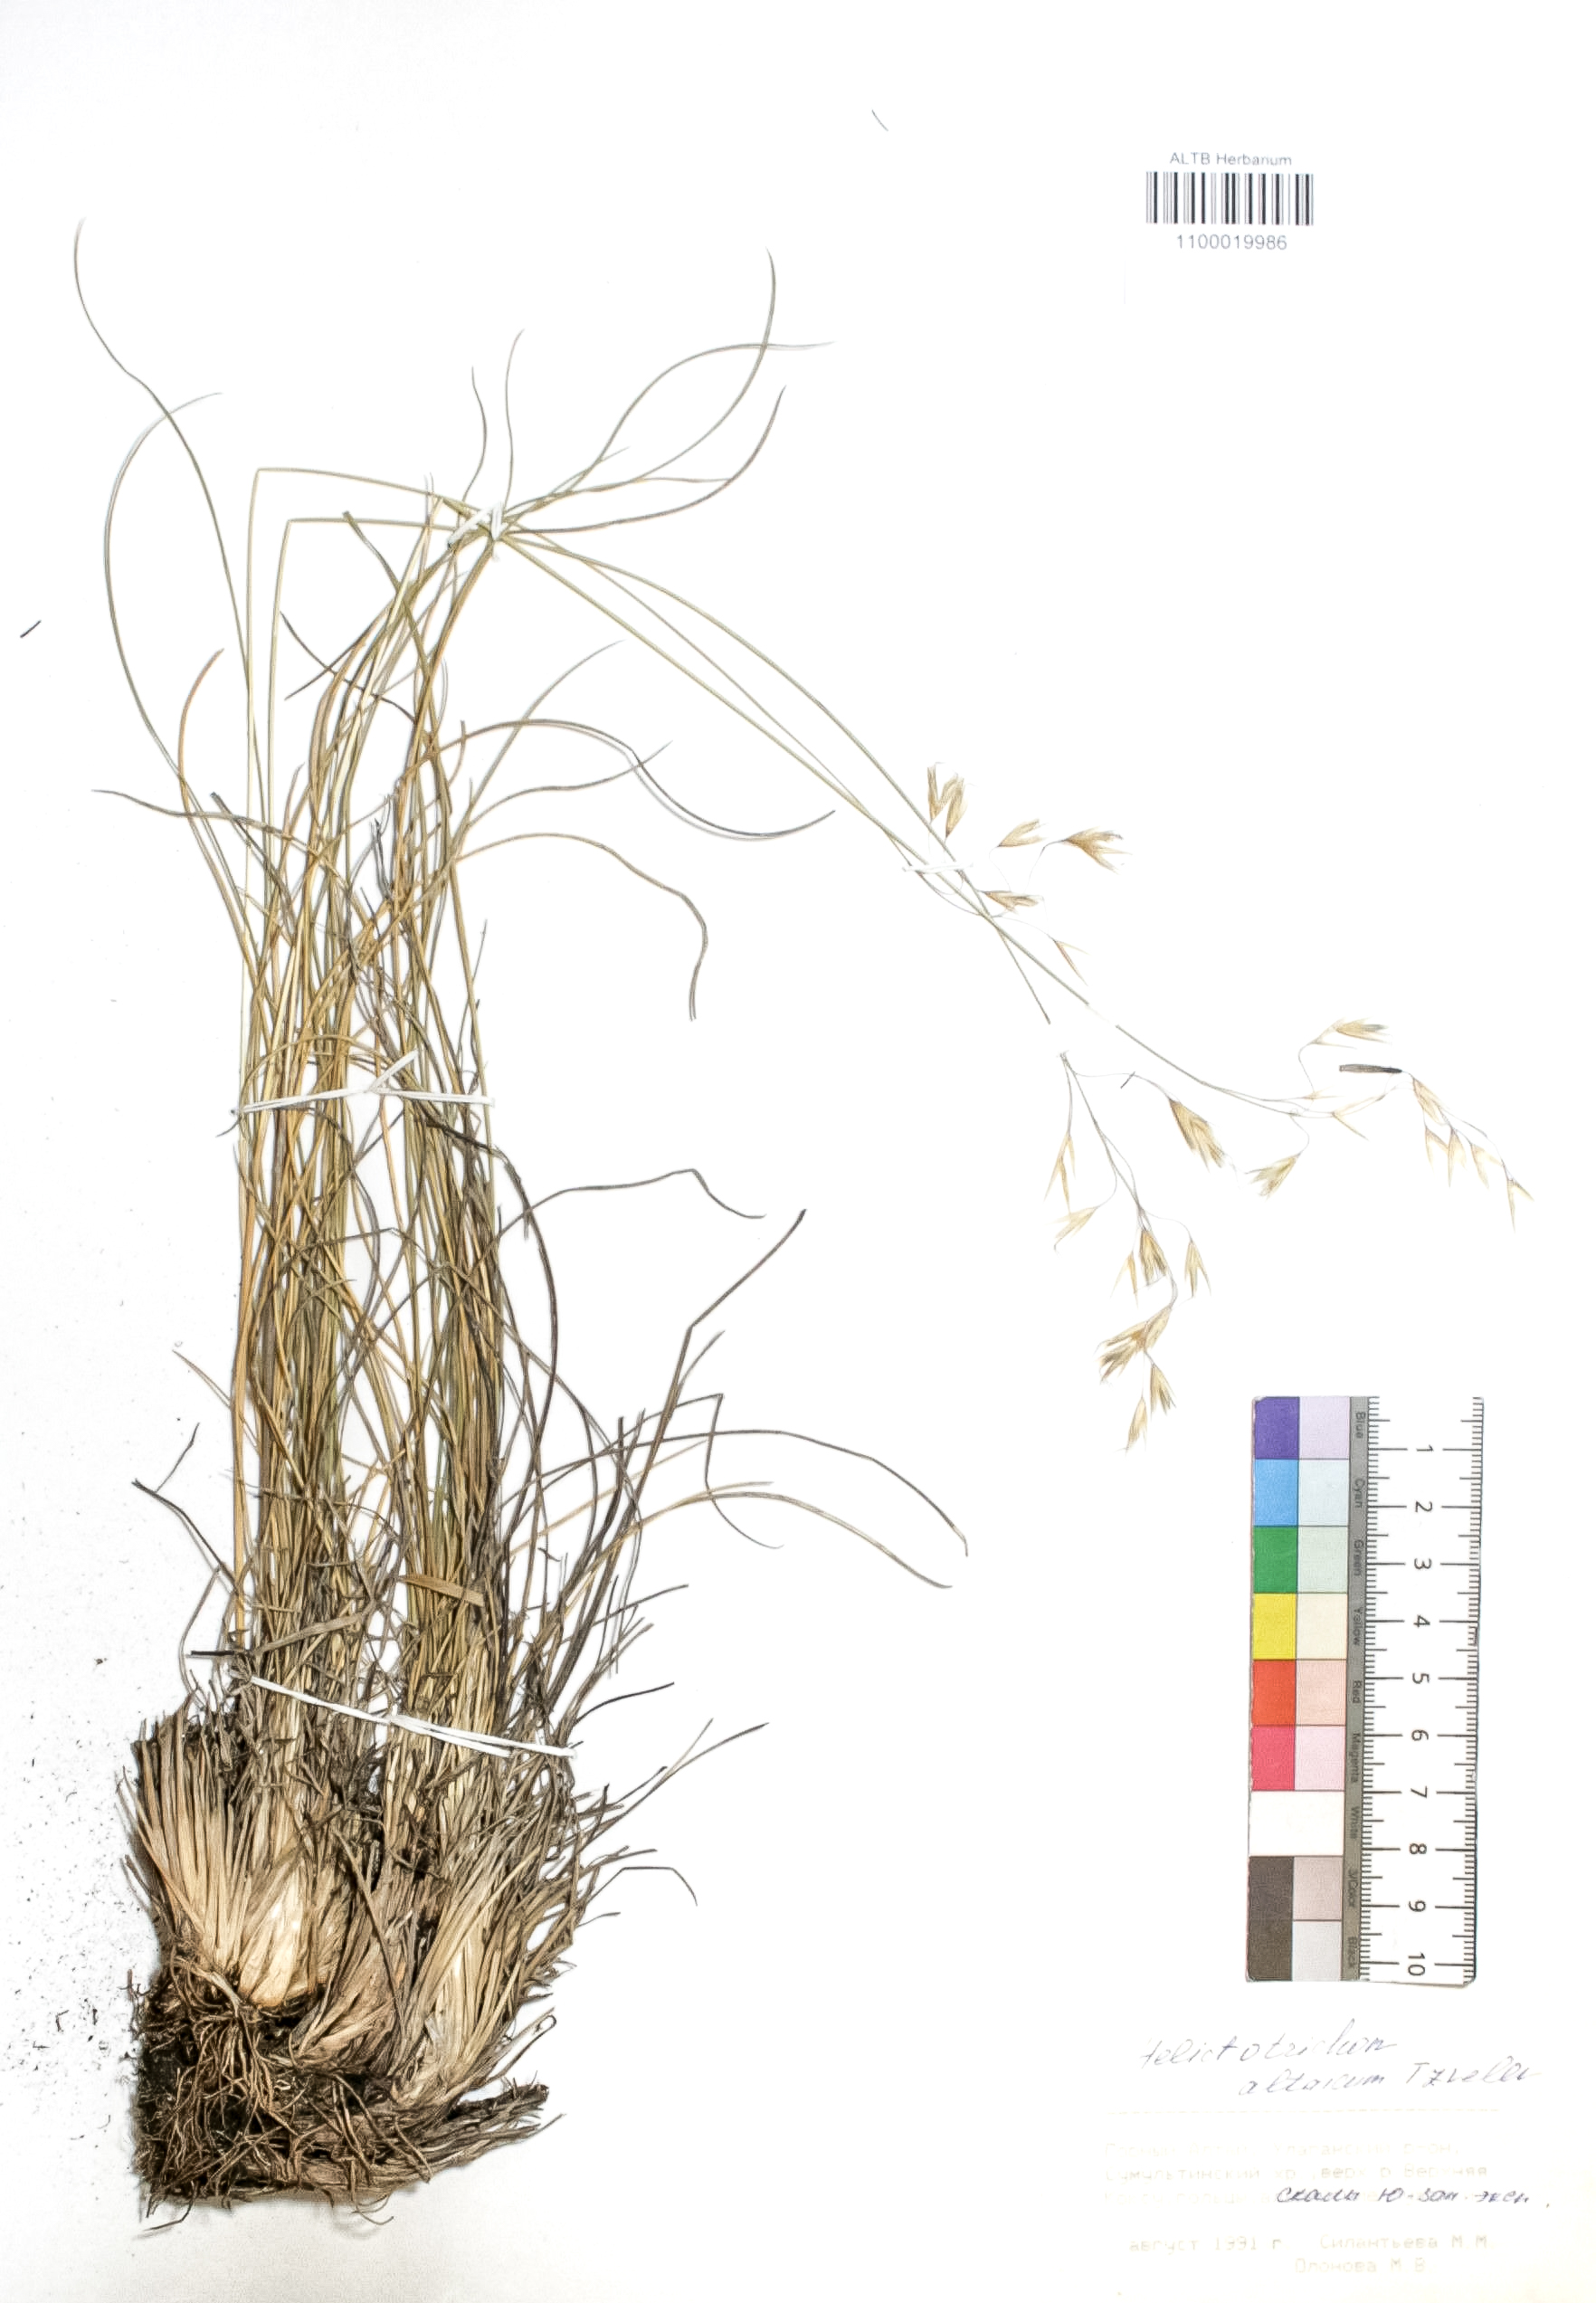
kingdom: Plantae
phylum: Tracheophyta
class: Liliopsida
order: Poales
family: Poaceae
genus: Helictotrichon
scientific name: Helictotrichon desertorum
